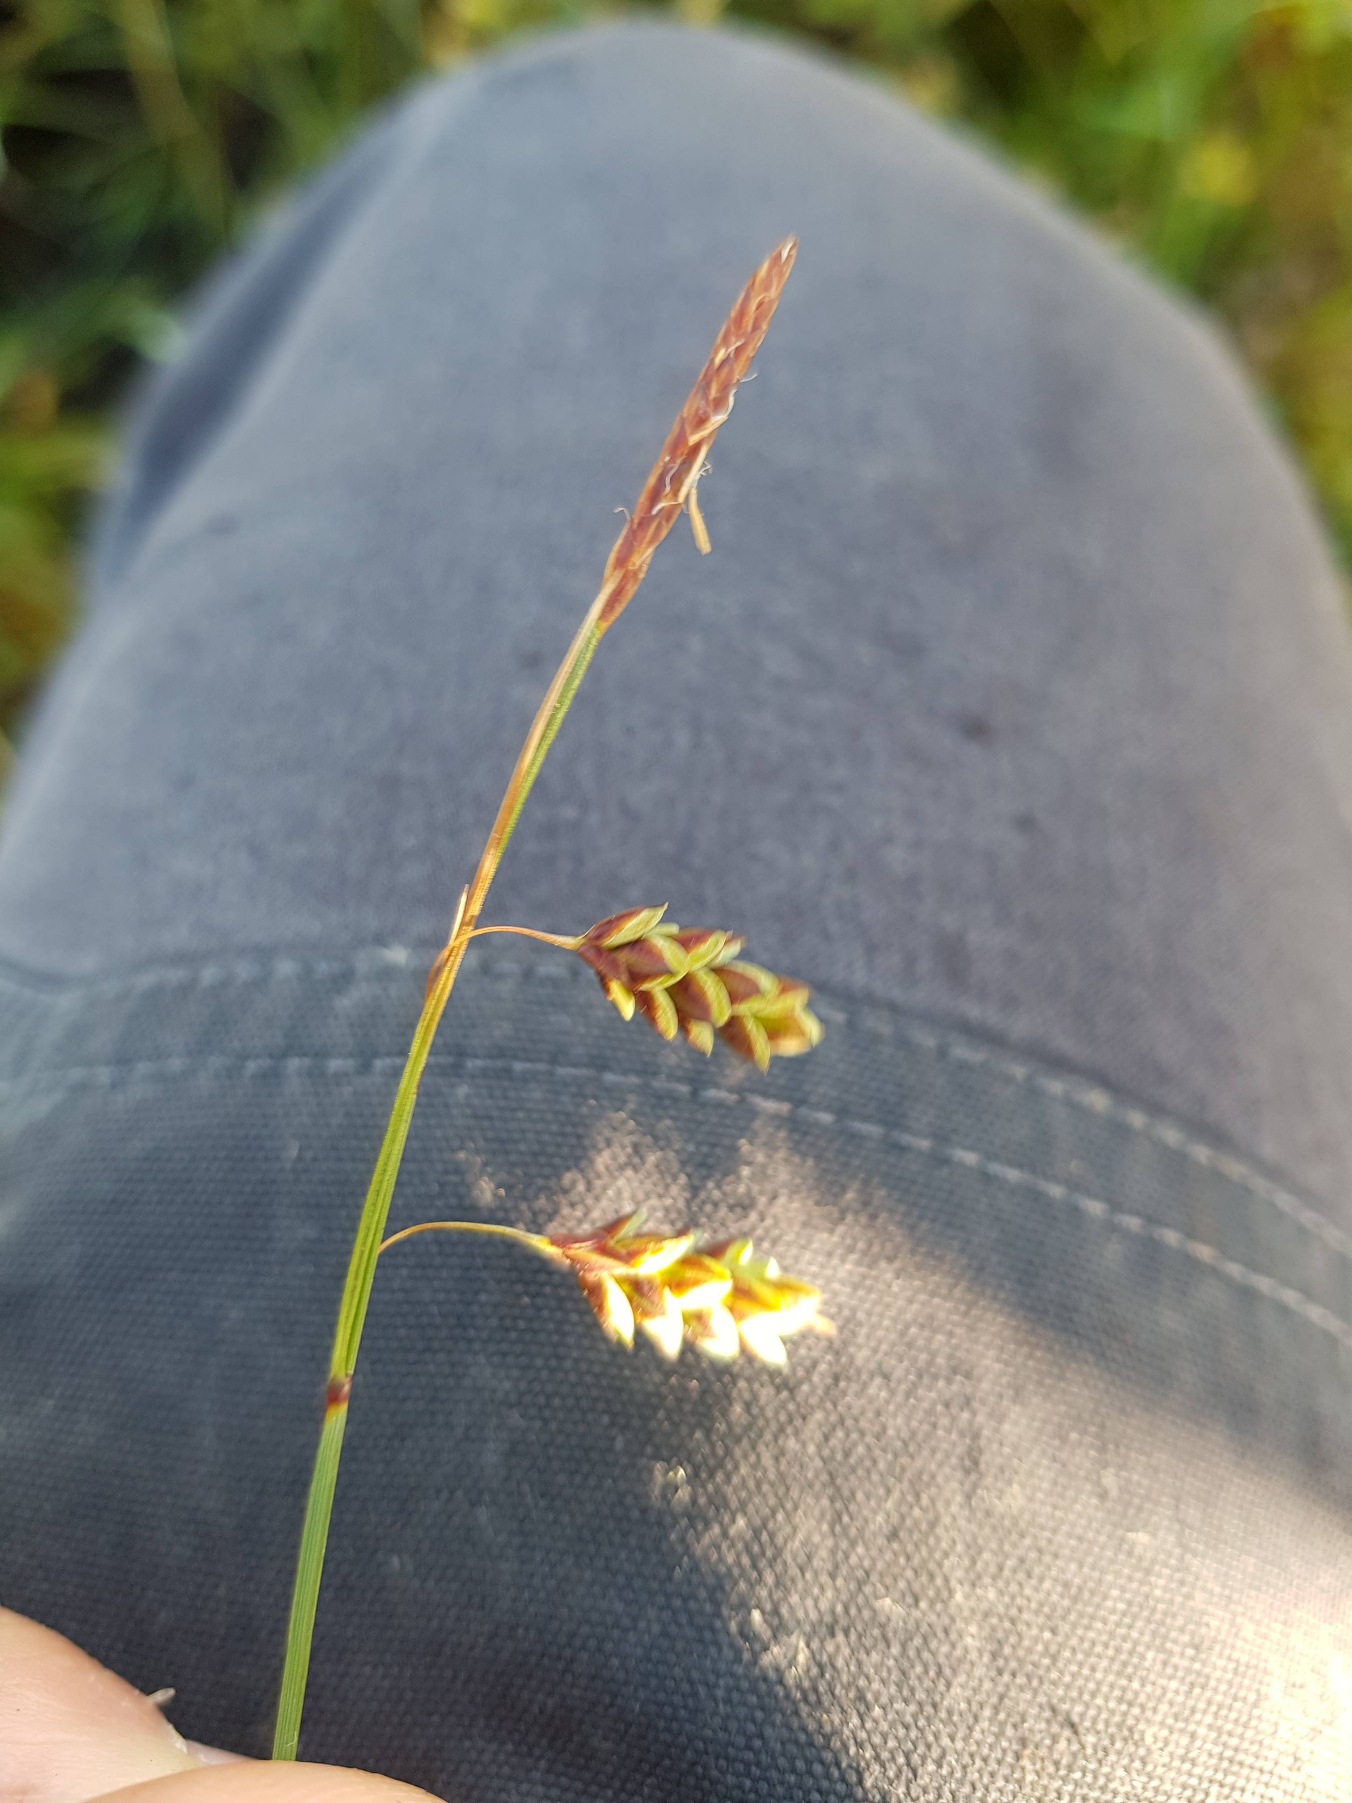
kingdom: Plantae
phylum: Tracheophyta
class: Liliopsida
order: Poales
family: Cyperaceae
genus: Carex
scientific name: Carex limosa
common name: Dynd-star
